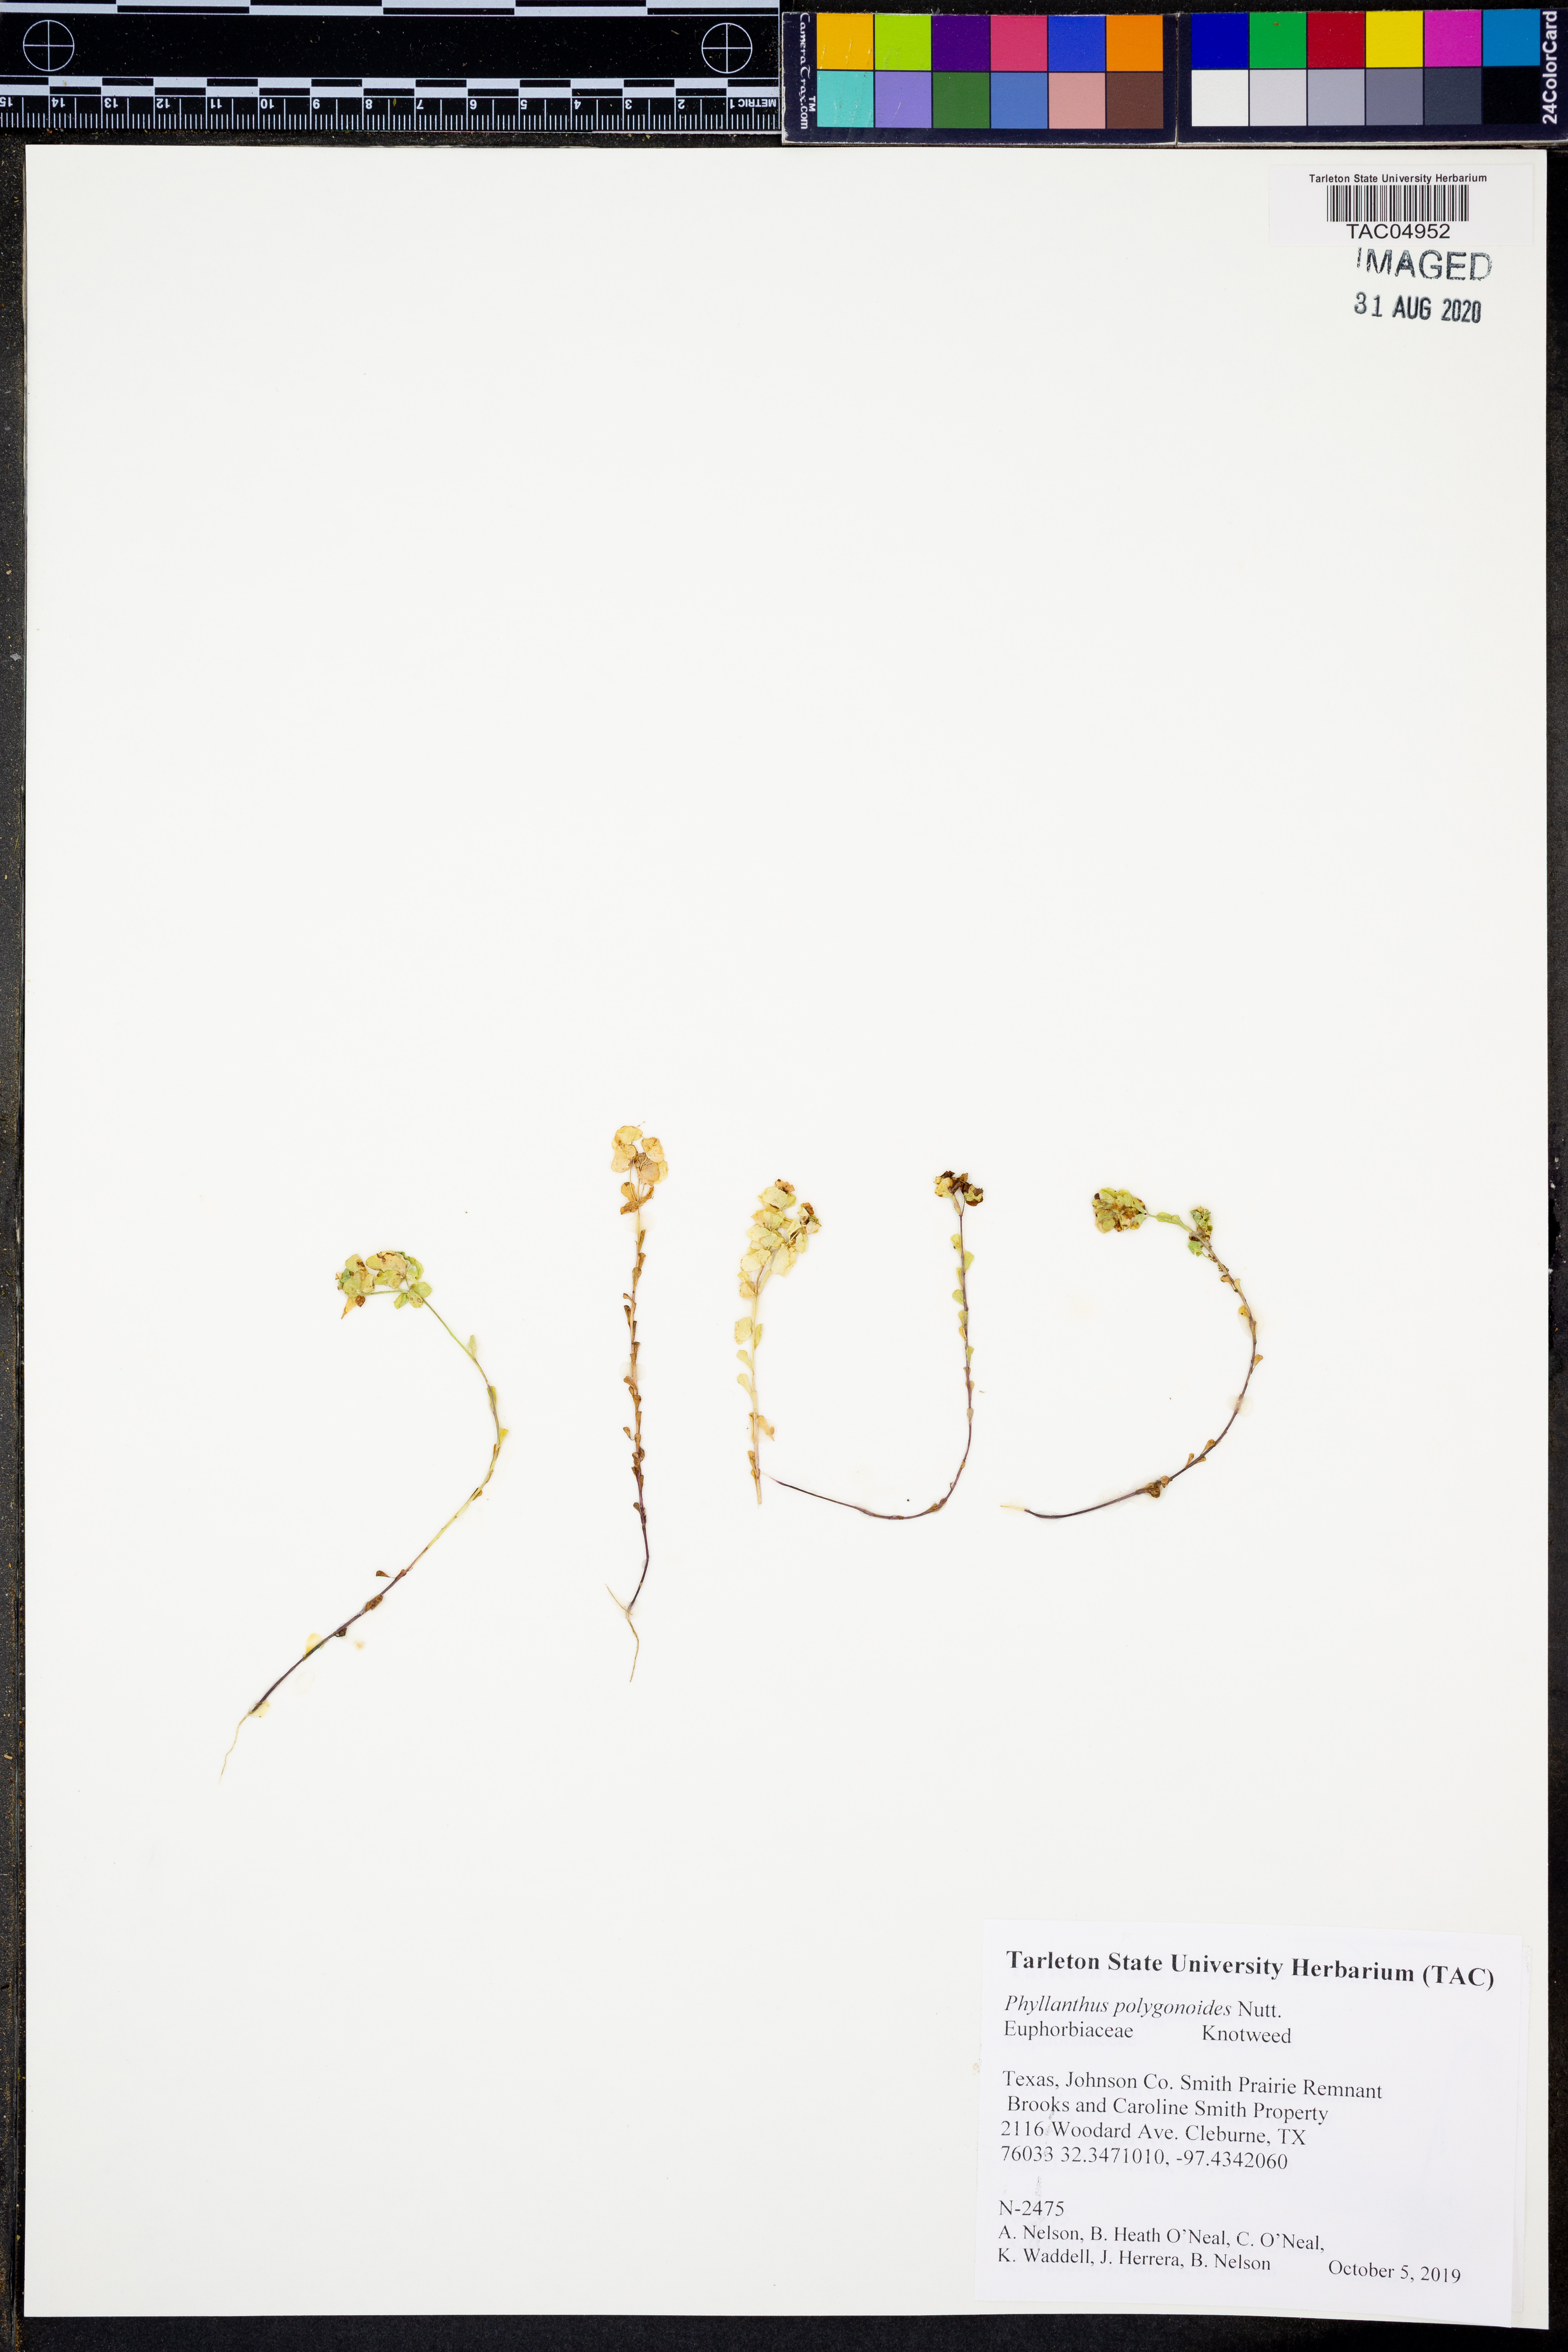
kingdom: Plantae
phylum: Tracheophyta
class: Magnoliopsida
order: Malpighiales
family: Phyllanthaceae
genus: Phyllanthus
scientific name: Phyllanthus polygonoides
